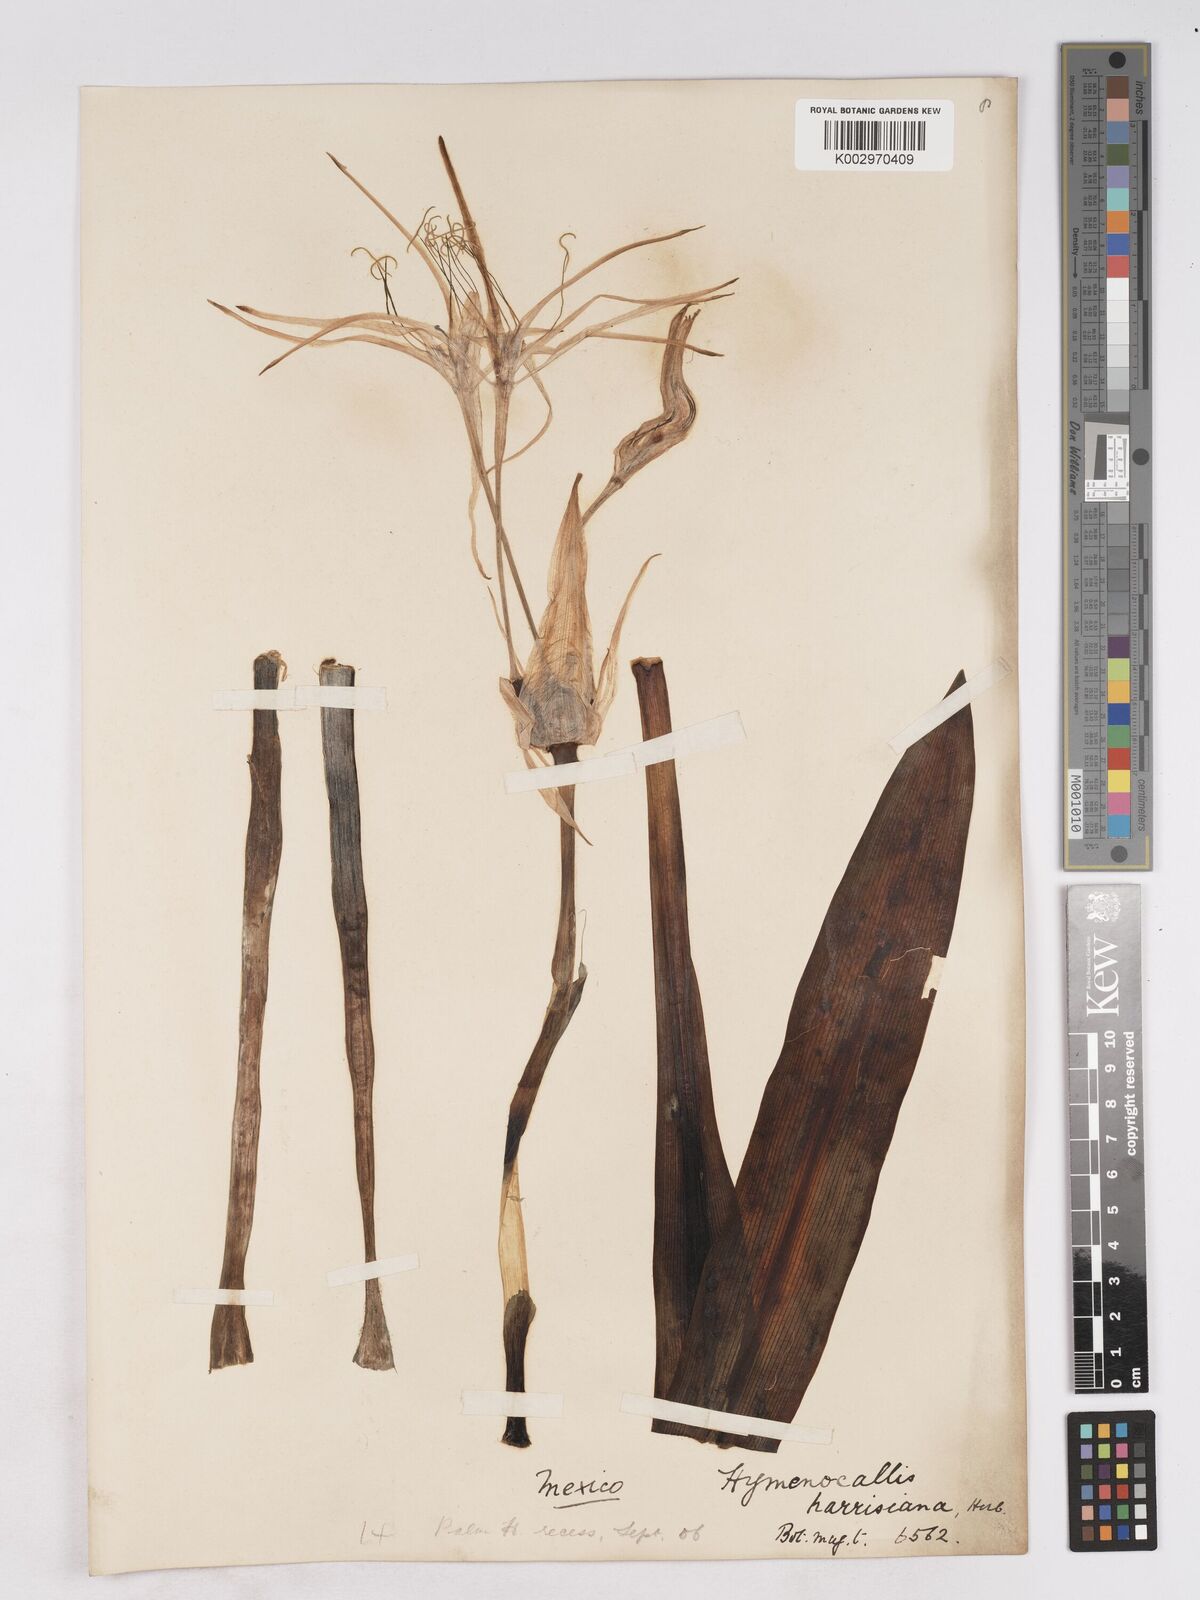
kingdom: Plantae
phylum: Tracheophyta
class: Liliopsida
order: Asparagales
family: Amaryllidaceae
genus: Hymenocallis
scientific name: Hymenocallis harrisiana
